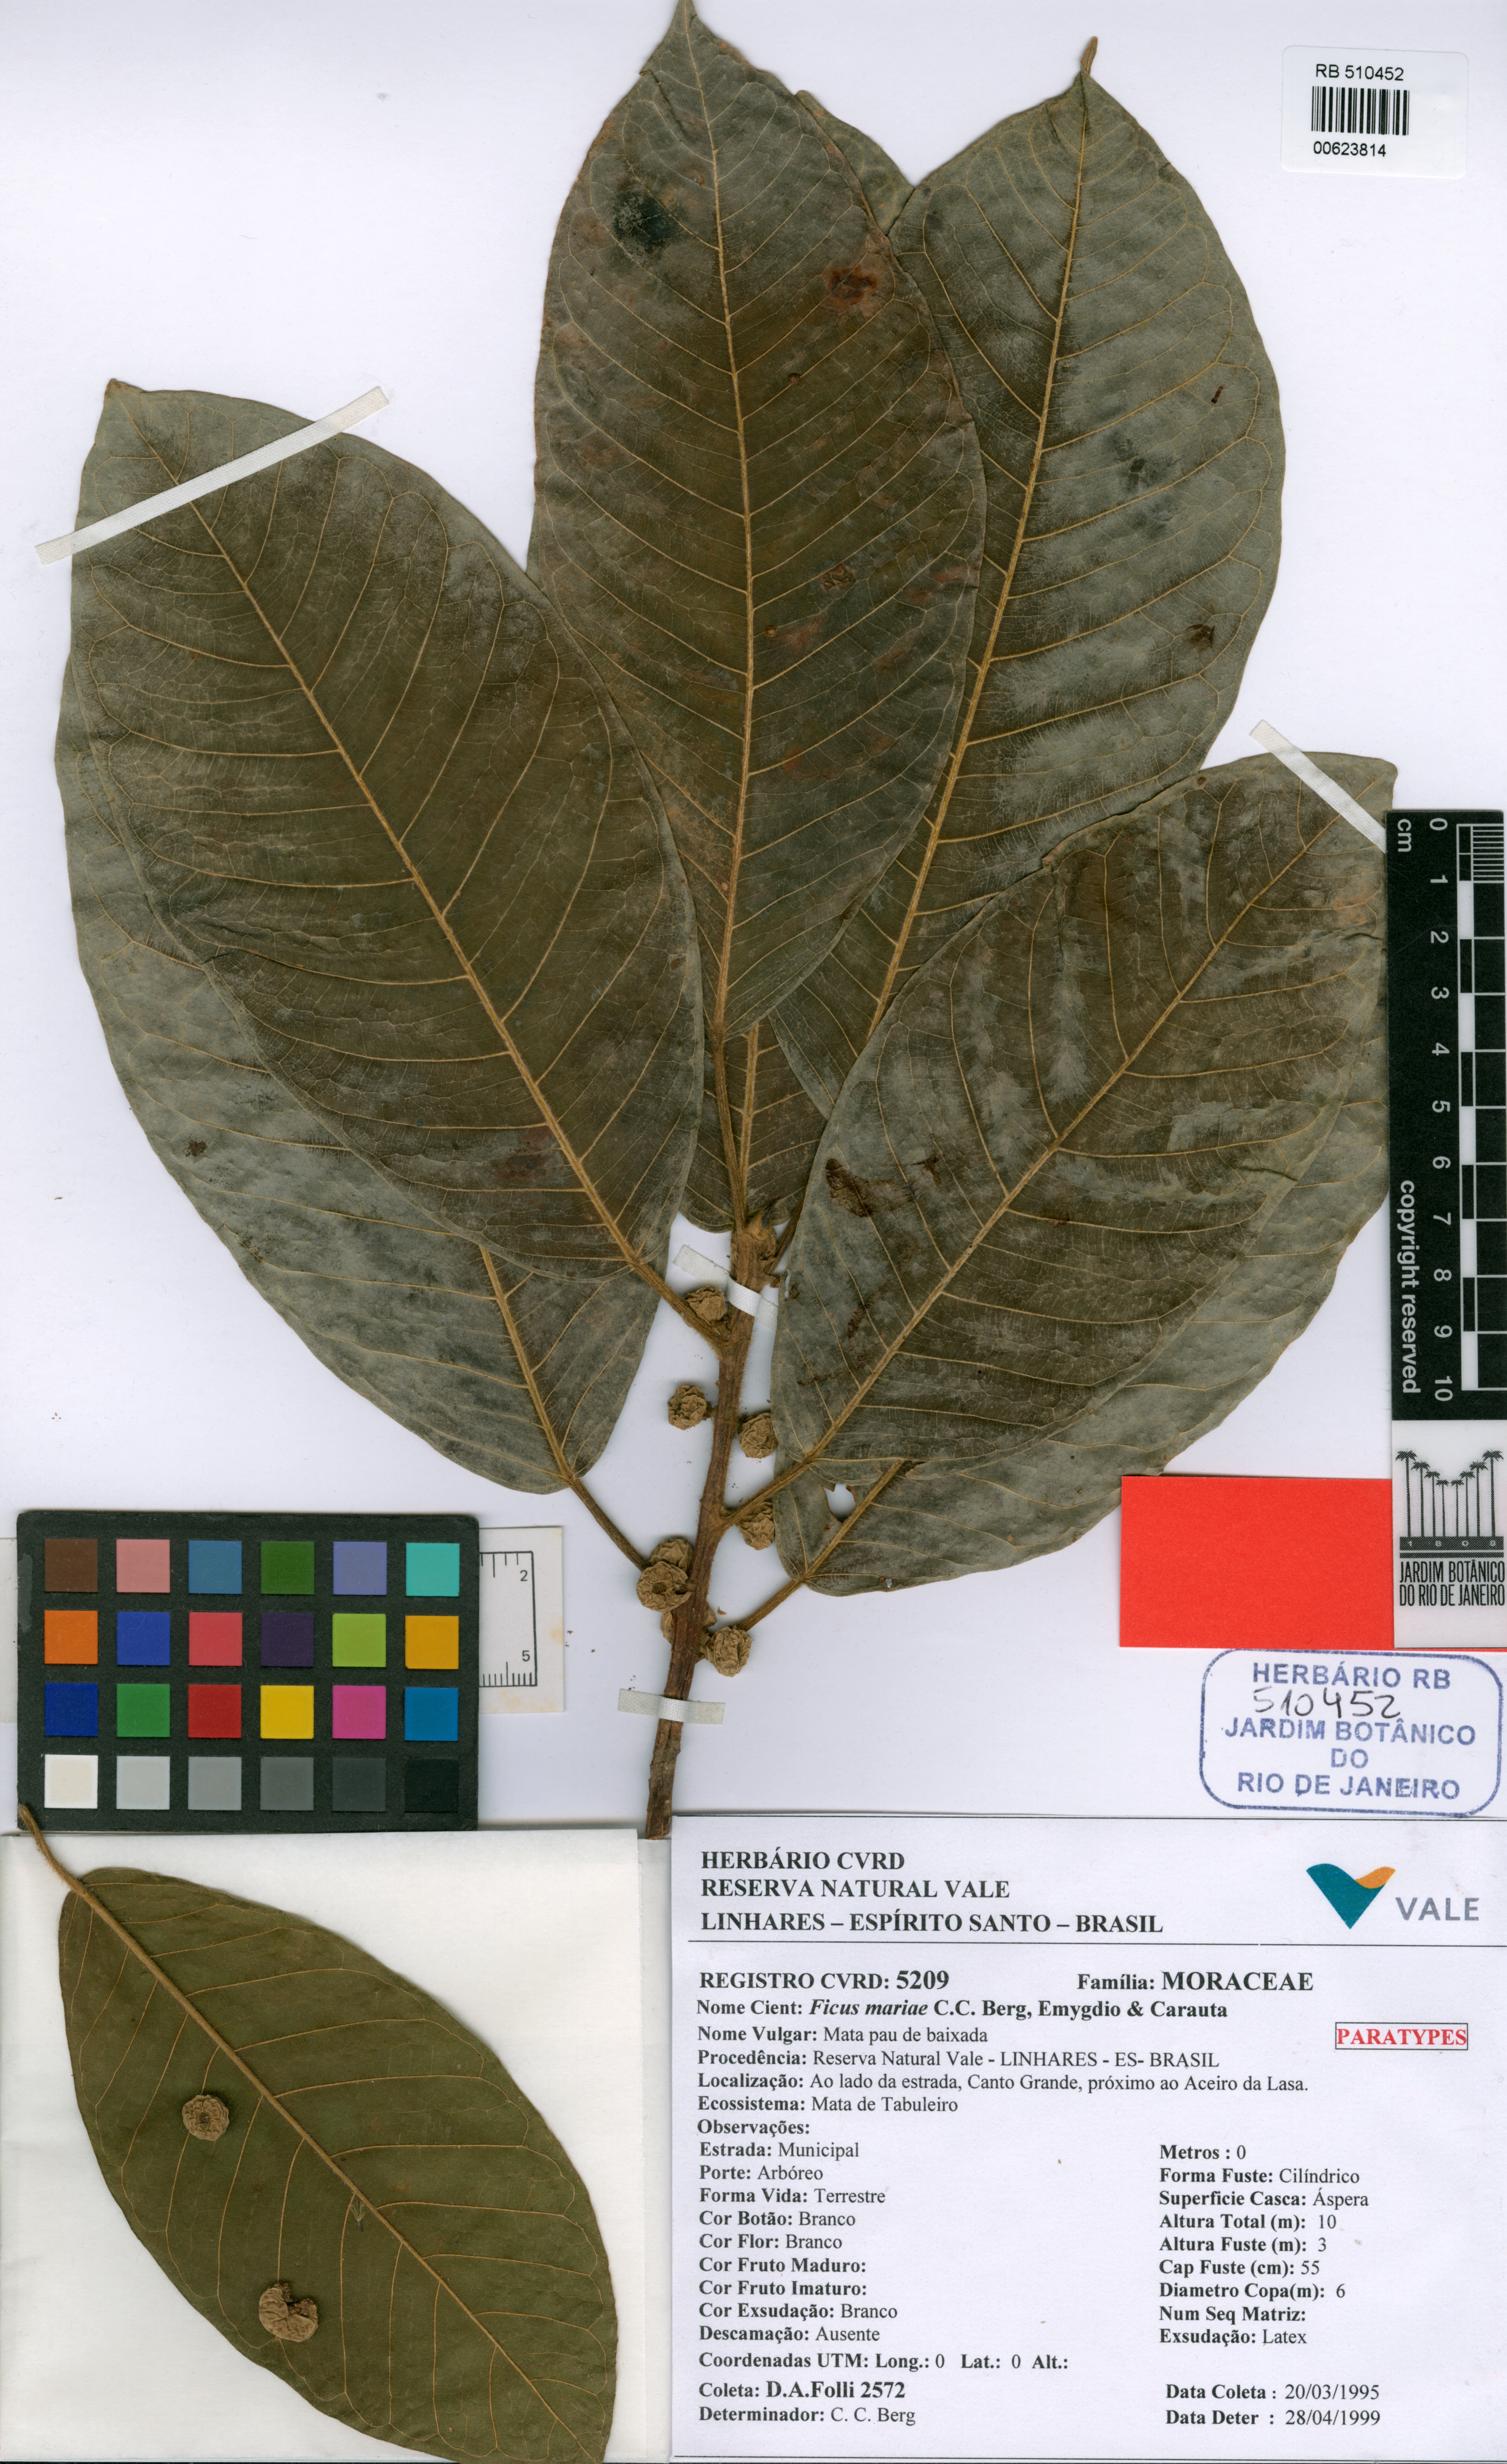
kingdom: Plantae
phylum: Tracheophyta
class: Magnoliopsida
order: Rosales
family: Moraceae
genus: Ficus
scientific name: Ficus mariae
